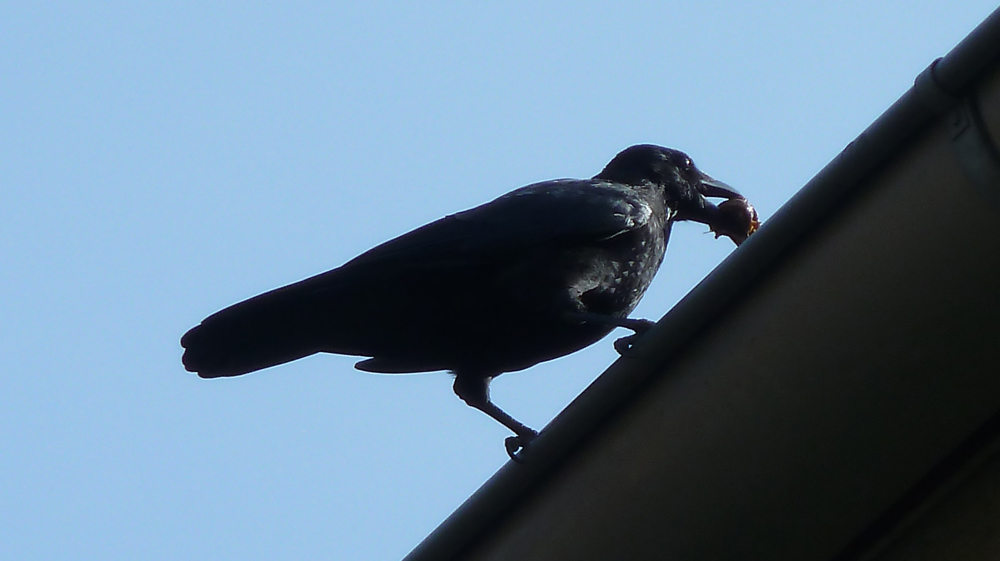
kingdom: Animalia
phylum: Chordata
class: Aves
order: Passeriformes
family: Corvidae
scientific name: Corvidae
